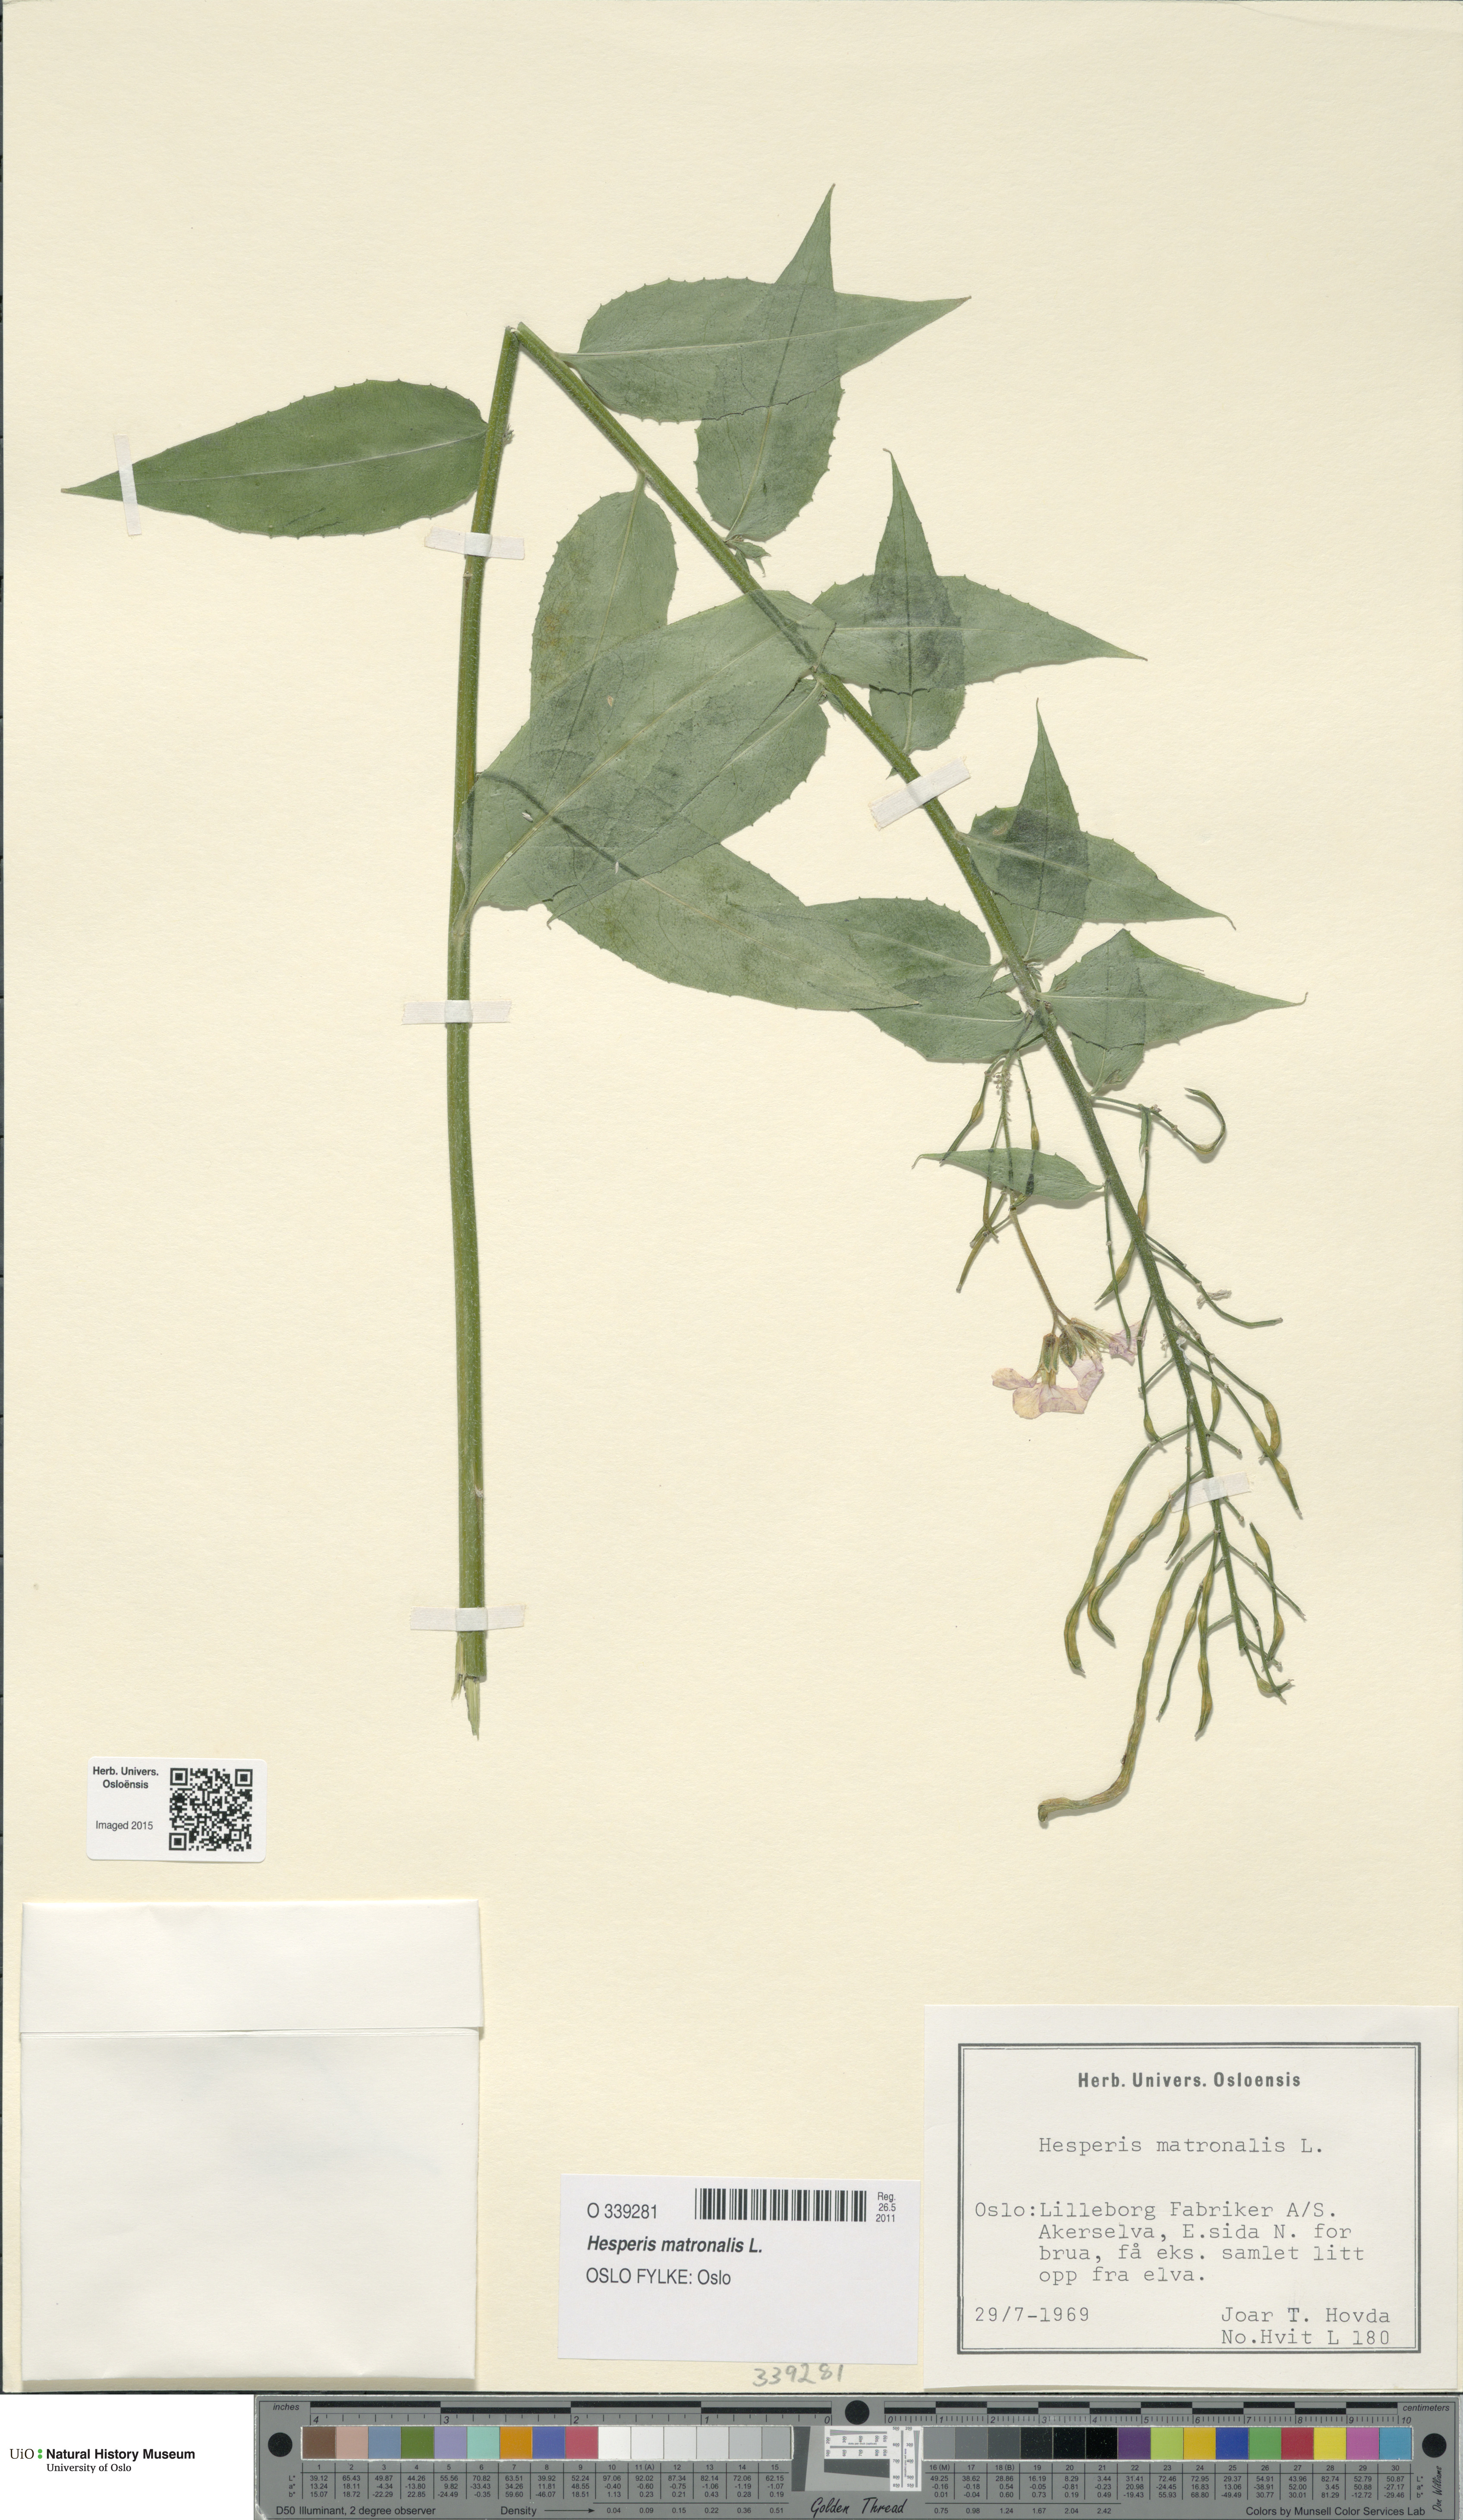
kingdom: Plantae
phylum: Tracheophyta
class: Magnoliopsida
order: Brassicales
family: Brassicaceae
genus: Hesperis
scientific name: Hesperis matronalis
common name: Dame's-violet
